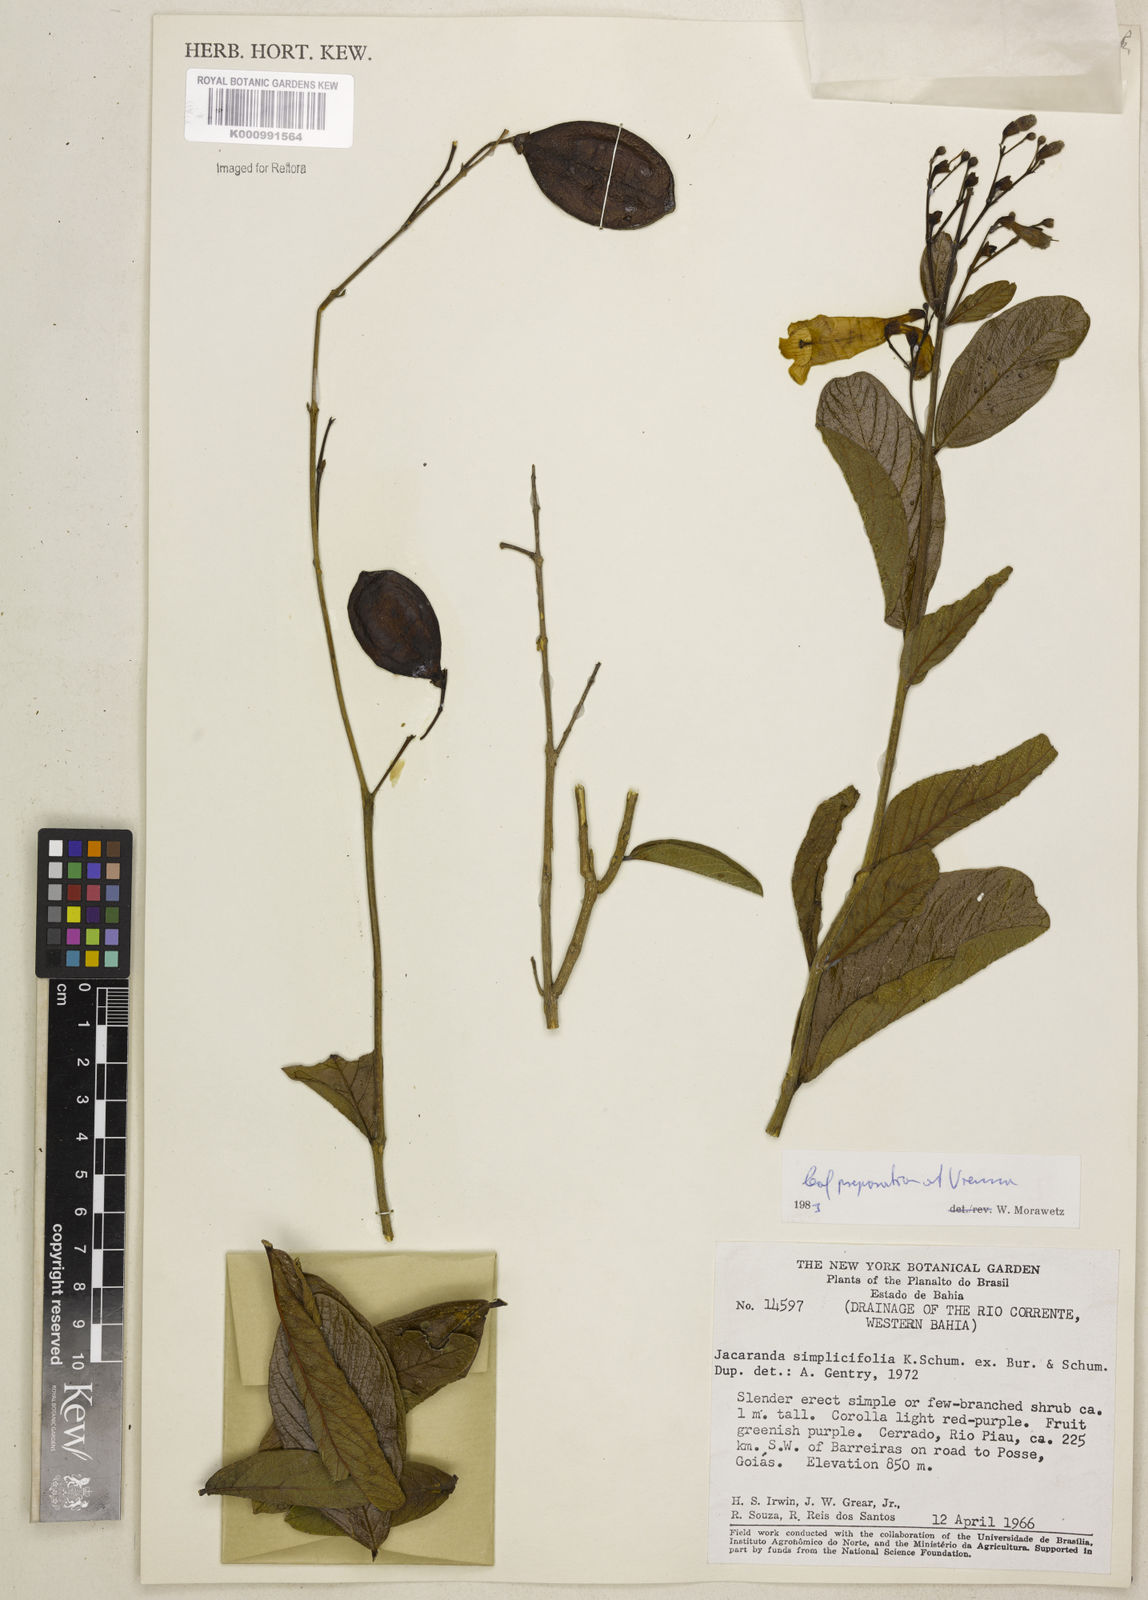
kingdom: Plantae
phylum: Tracheophyta
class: Magnoliopsida
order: Lamiales
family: Bignoniaceae
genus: Jacaranda
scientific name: Jacaranda simplicifolia
